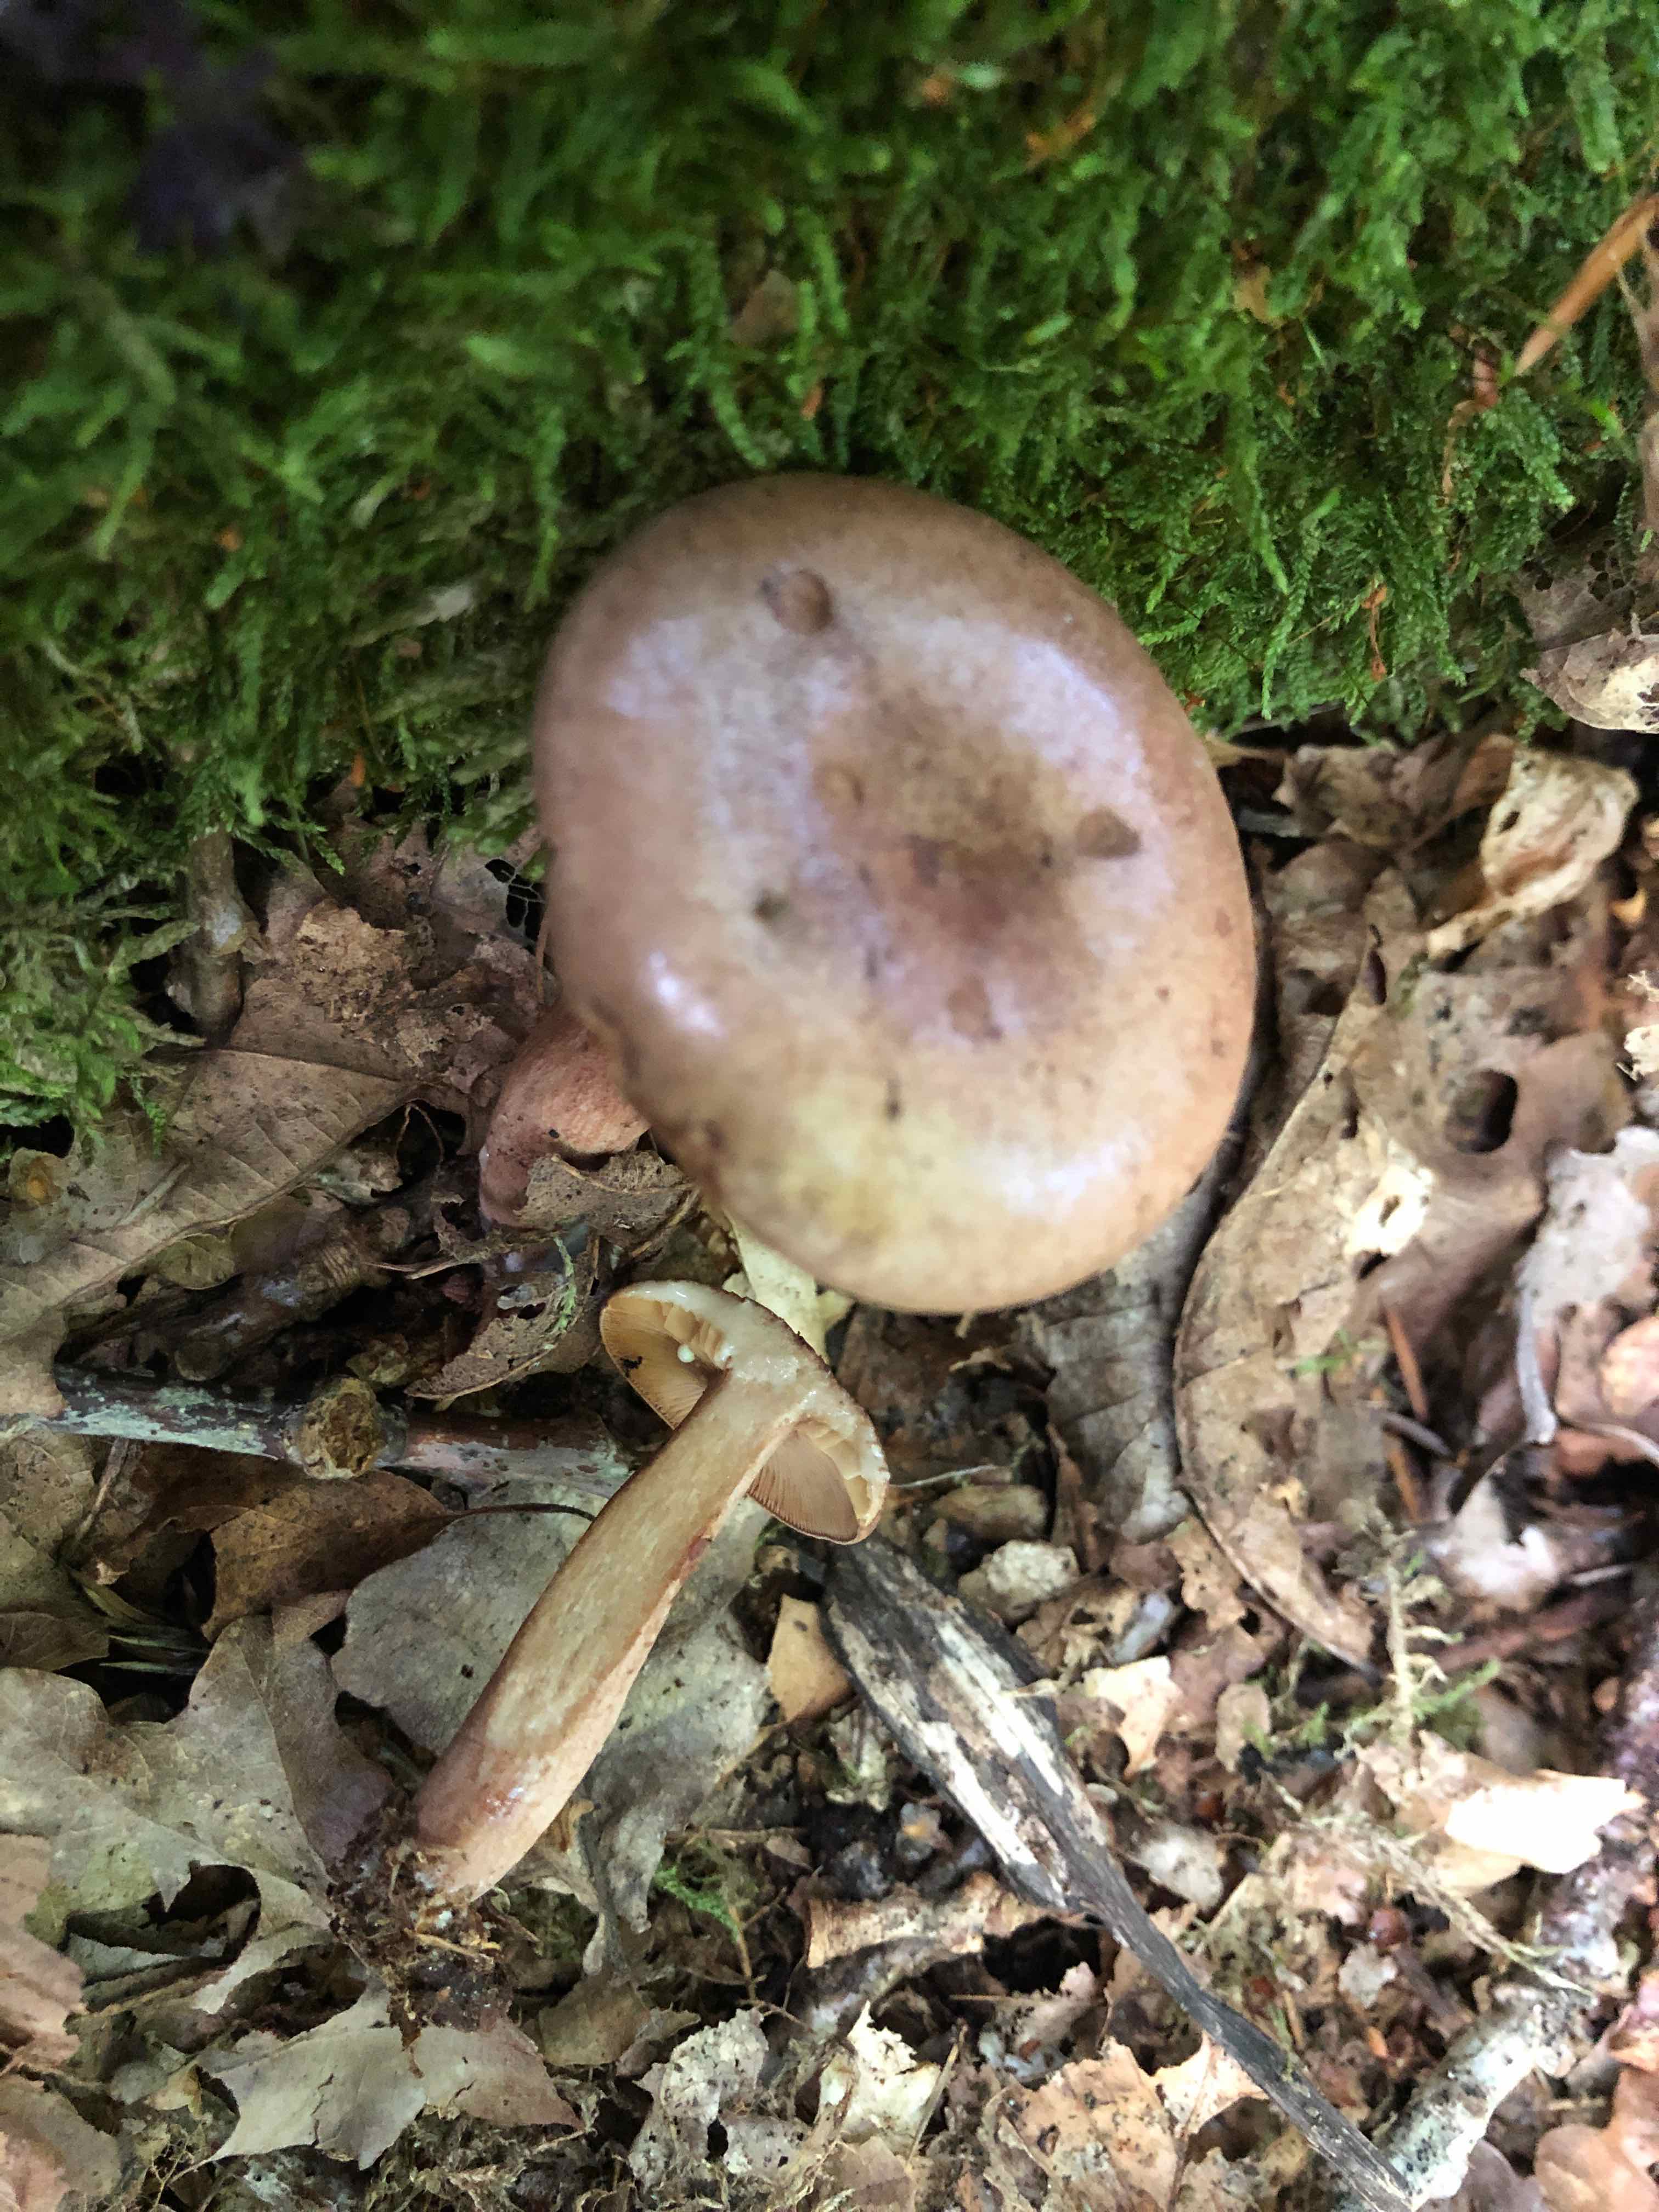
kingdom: Fungi
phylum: Basidiomycota
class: Agaricomycetes
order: Russulales
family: Russulaceae
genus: Lactarius
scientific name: Lactarius
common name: mælkehat
